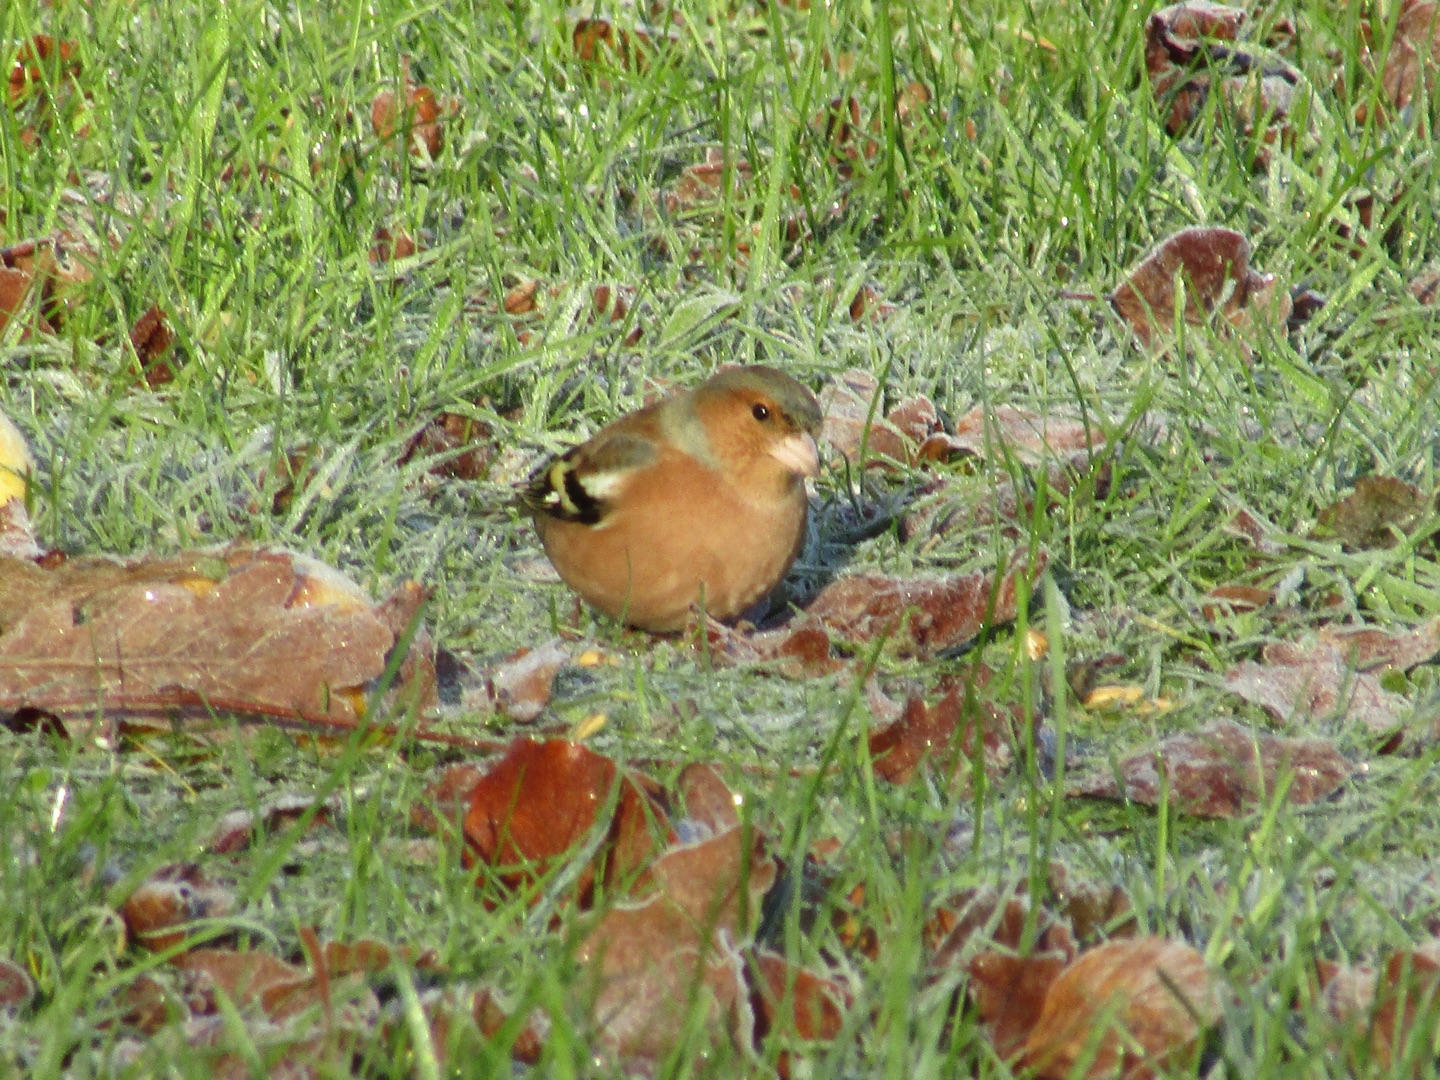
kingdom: Animalia
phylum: Chordata
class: Aves
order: Passeriformes
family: Fringillidae
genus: Fringilla
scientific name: Fringilla coelebs
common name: Bogfinke
